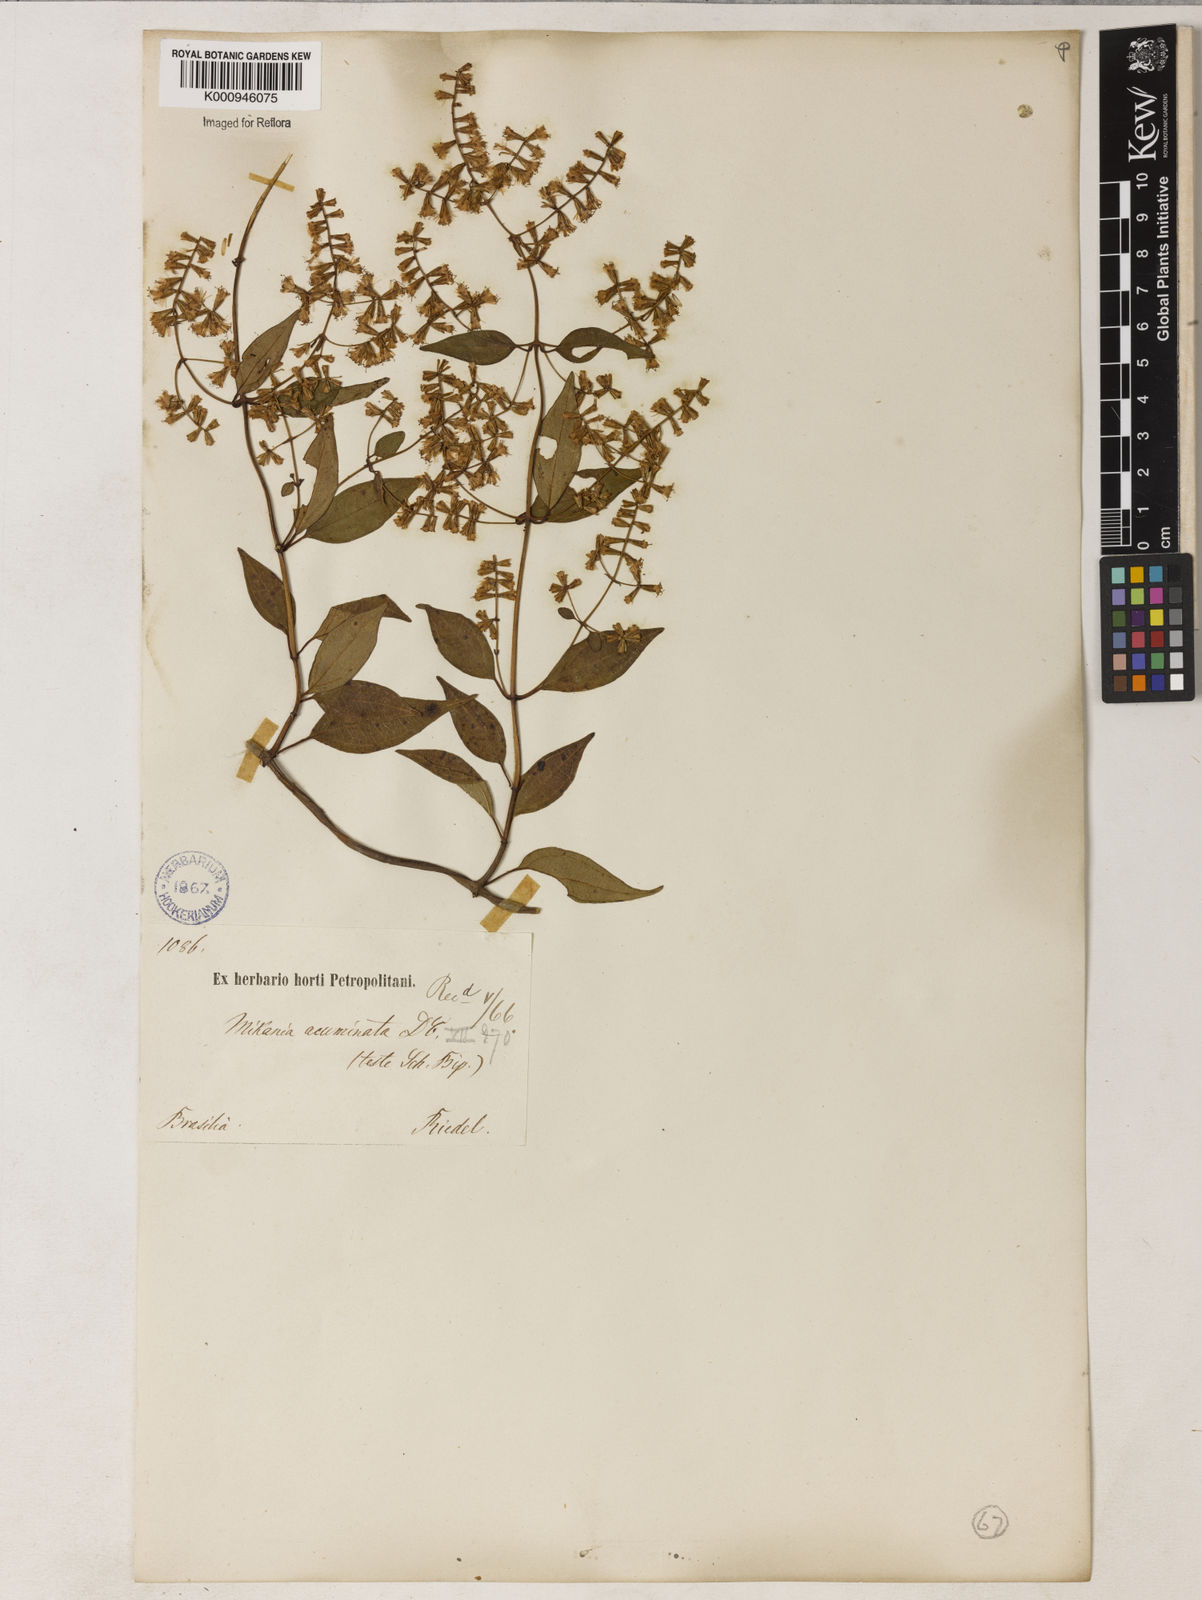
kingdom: Plantae
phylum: Tracheophyta
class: Magnoliopsida
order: Asterales
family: Asteraceae
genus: Mikania
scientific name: Mikania acuminata
